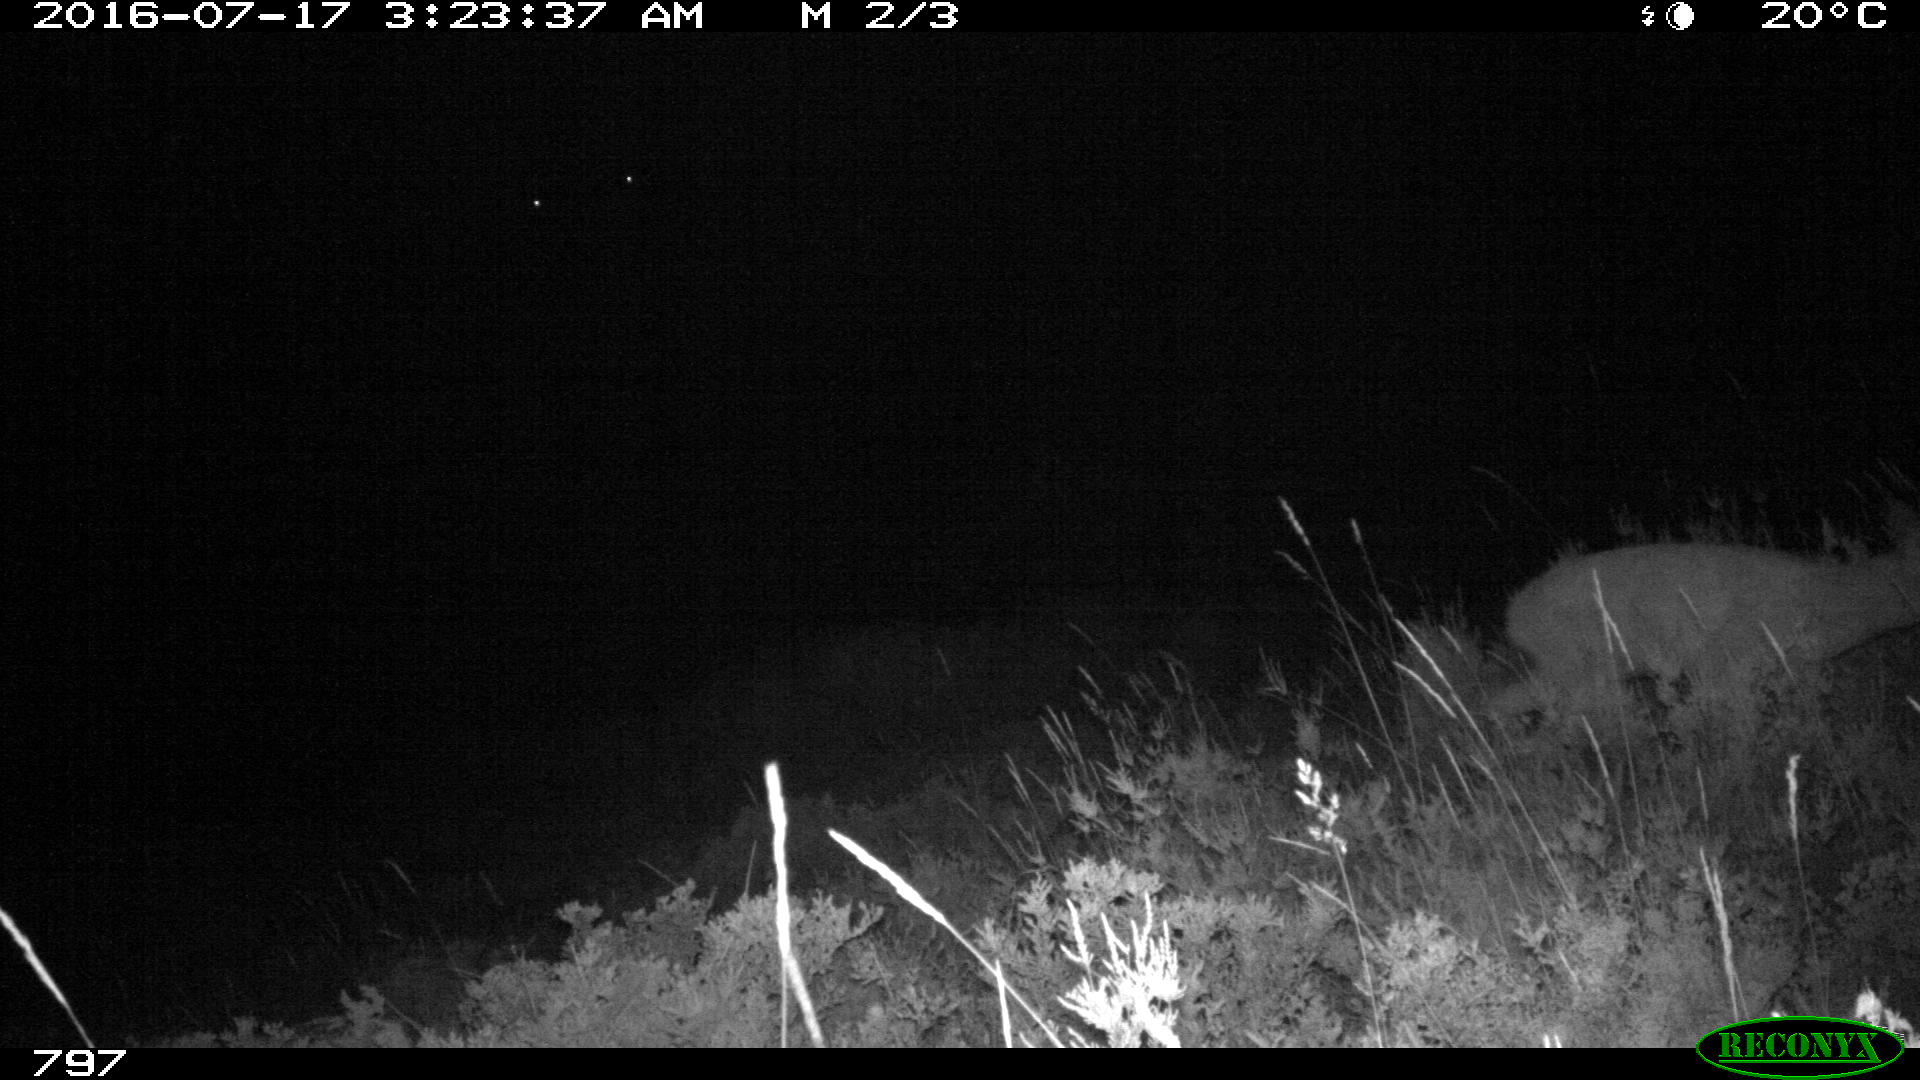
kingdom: Animalia
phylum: Chordata
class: Mammalia
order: Artiodactyla
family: Cervidae
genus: Capreolus
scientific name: Capreolus capreolus
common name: Western roe deer
